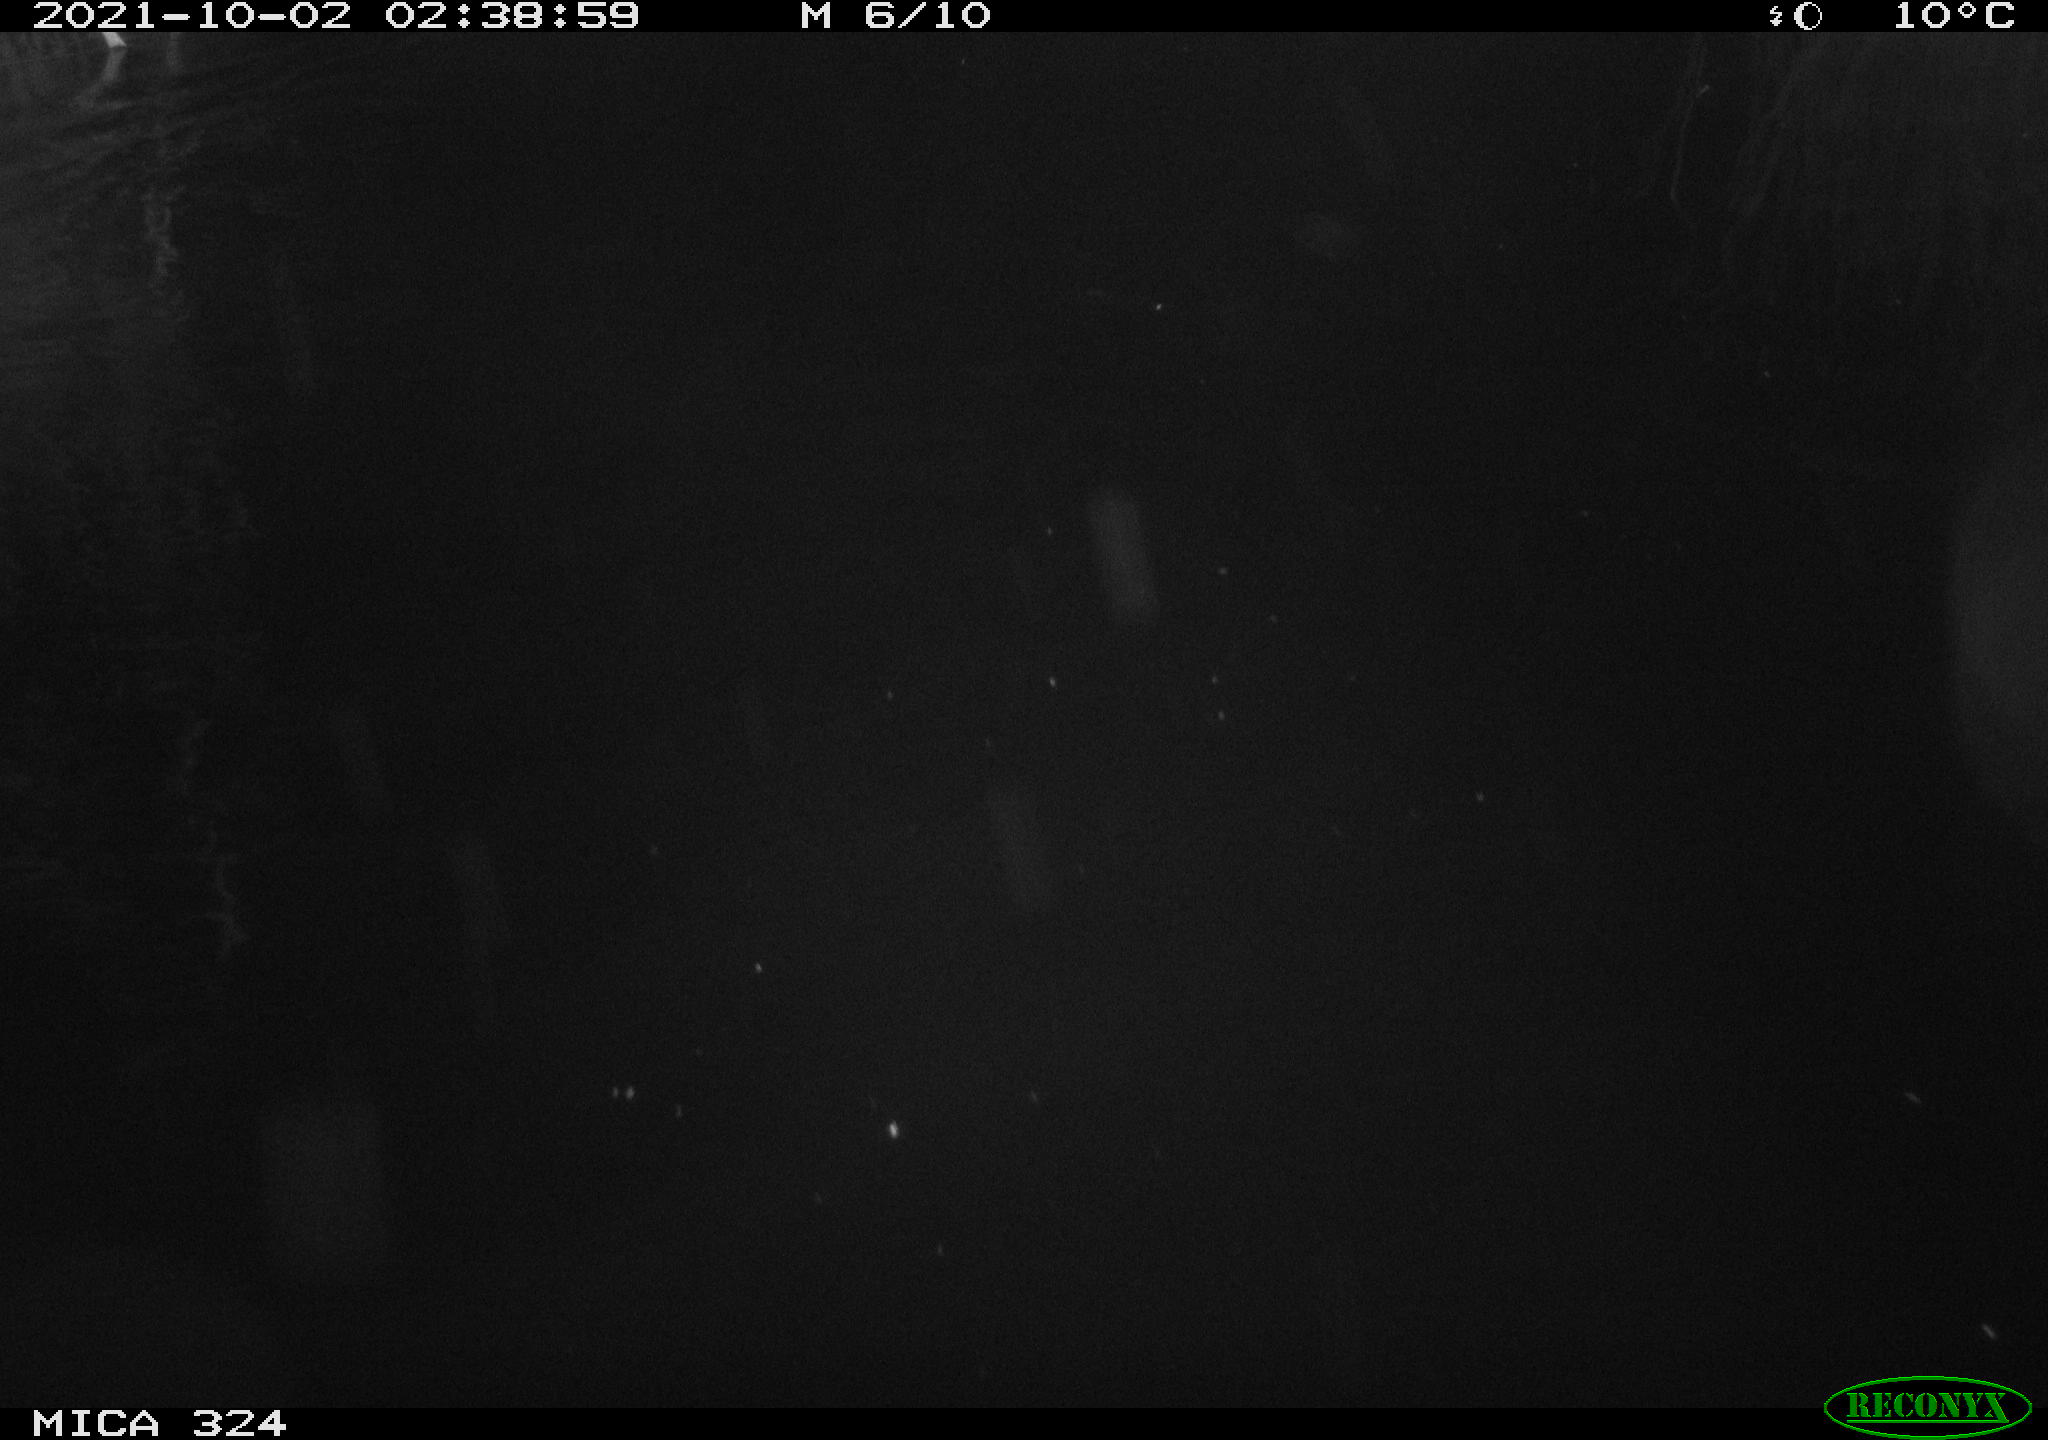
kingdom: Animalia
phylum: Chordata
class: Mammalia
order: Rodentia
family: Cricetidae
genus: Ondatra
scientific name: Ondatra zibethicus
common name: Muskrat
